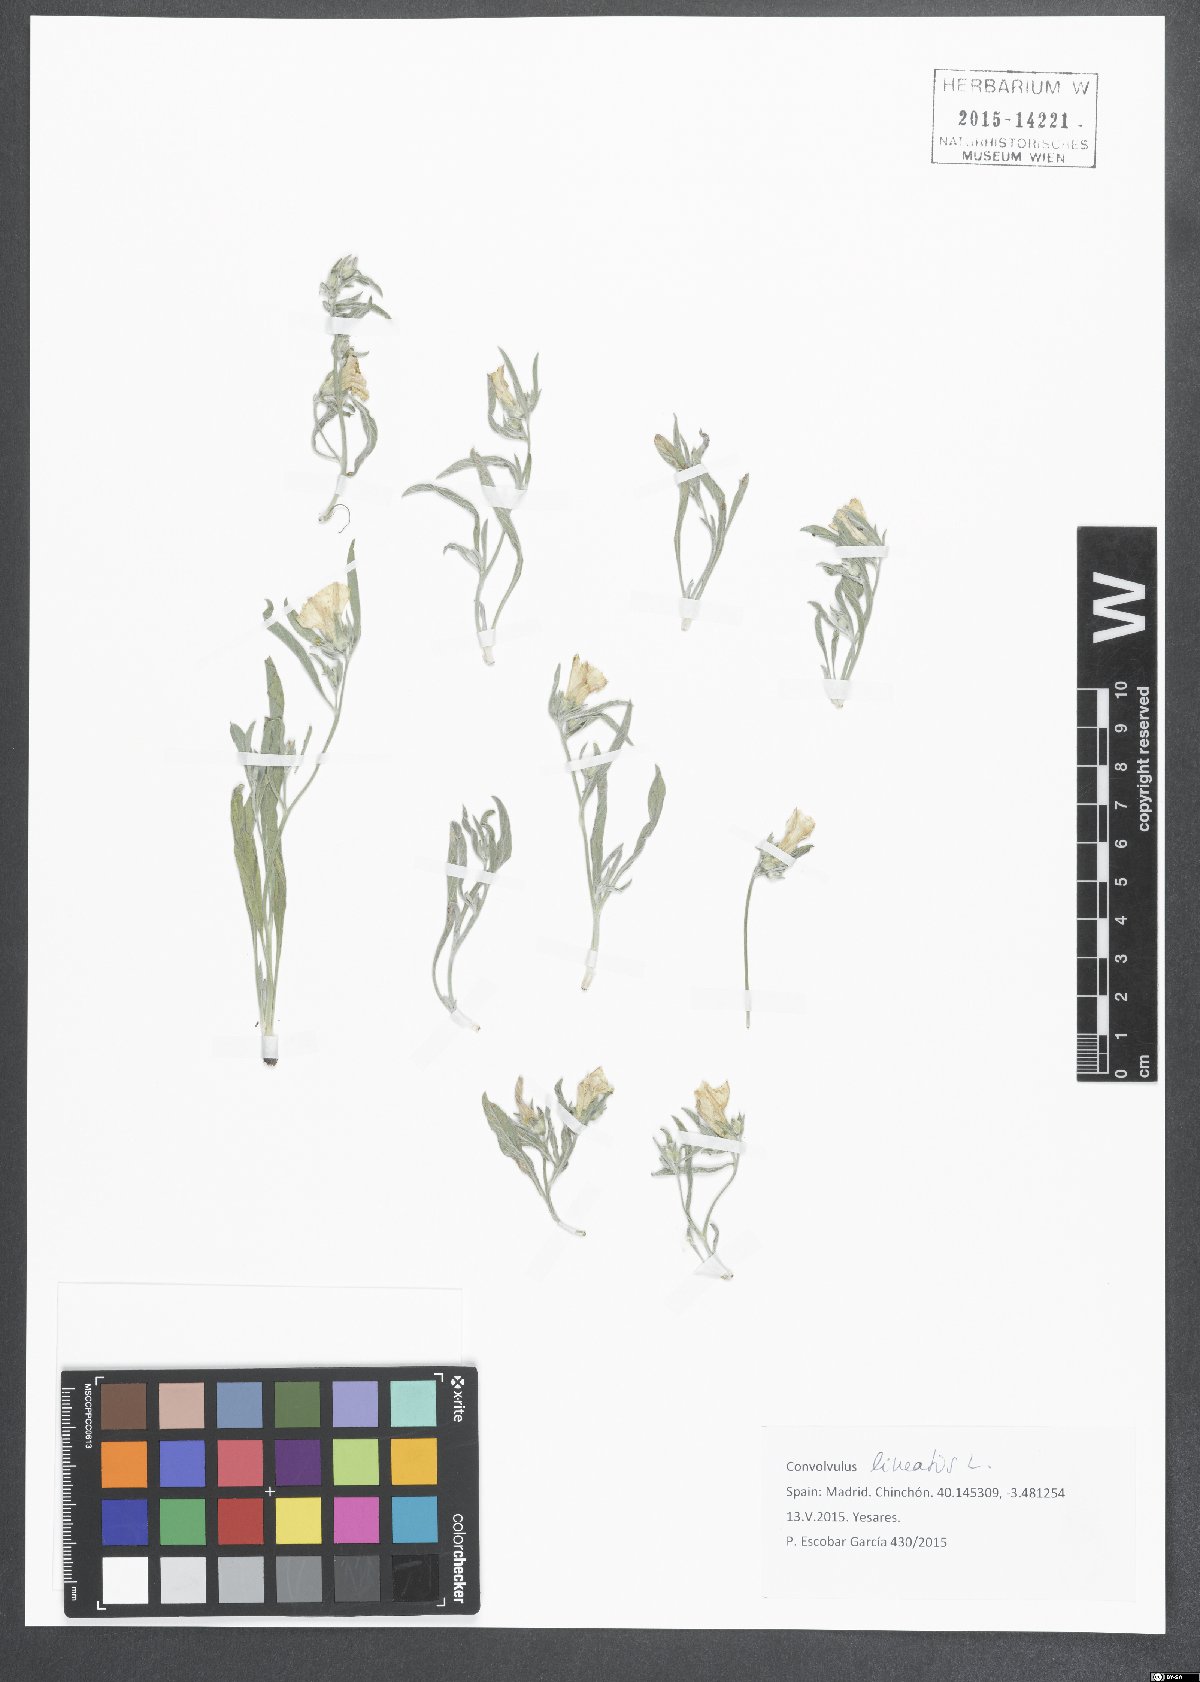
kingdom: Plantae
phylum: Tracheophyta
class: Magnoliopsida
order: Solanales
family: Convolvulaceae
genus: Convolvulus
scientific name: Convolvulus cantabrica
